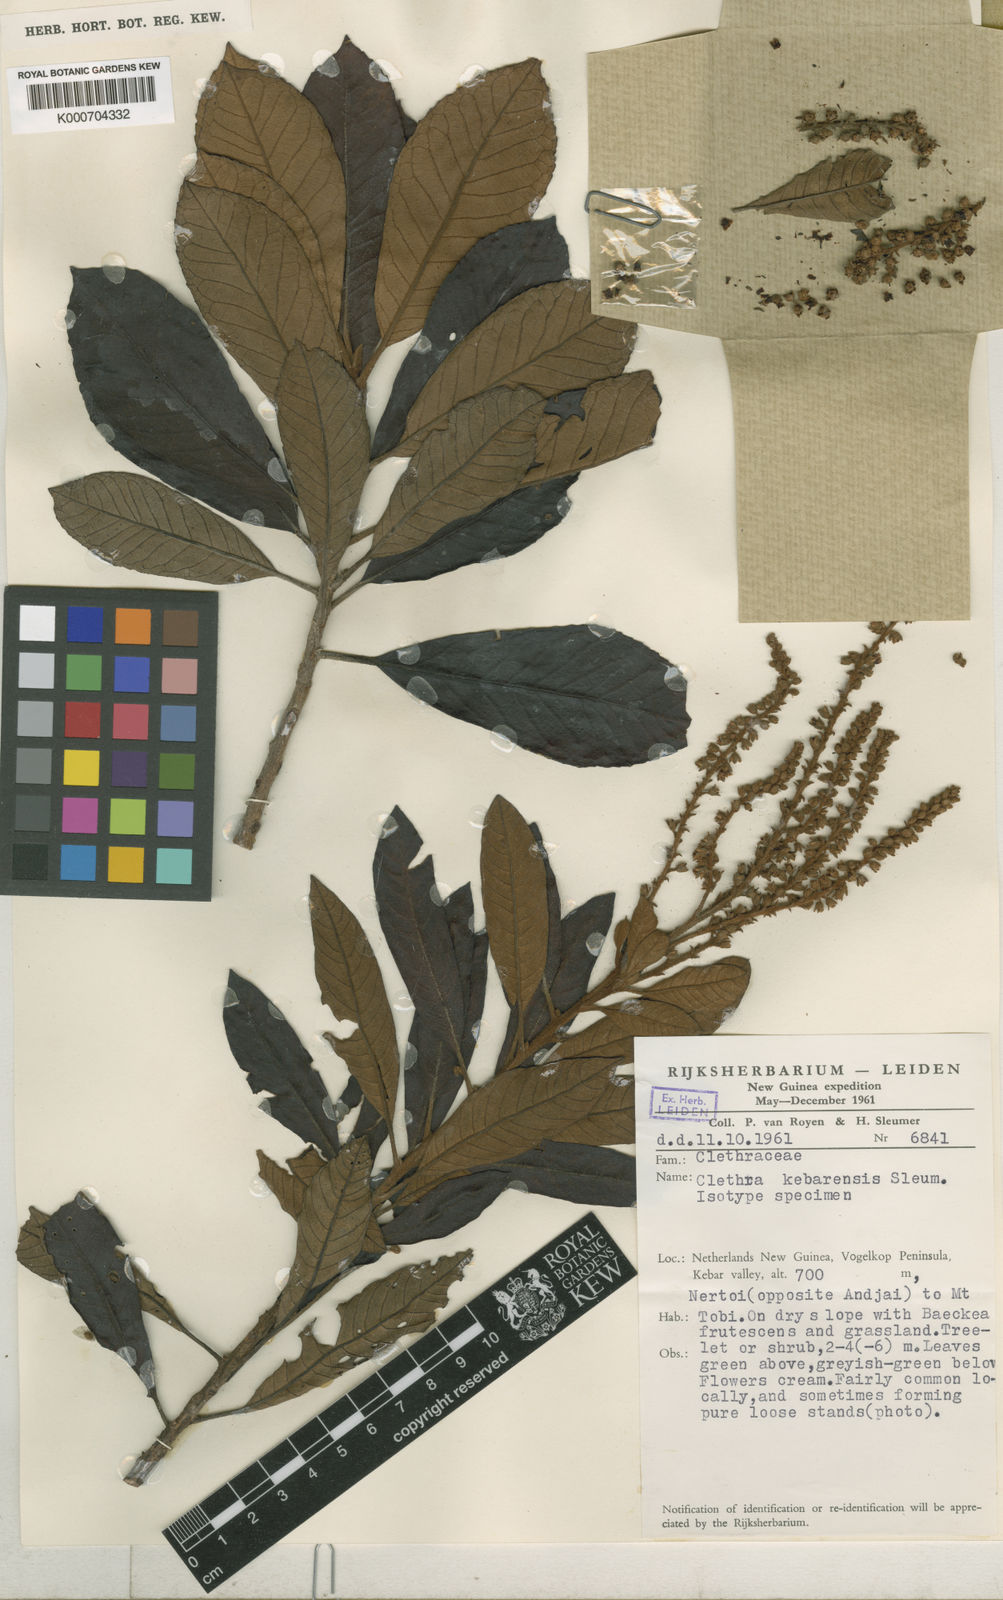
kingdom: Plantae
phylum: Tracheophyta
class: Magnoliopsida
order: Ericales
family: Clethraceae
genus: Clethra
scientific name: Clethra kebarensis
